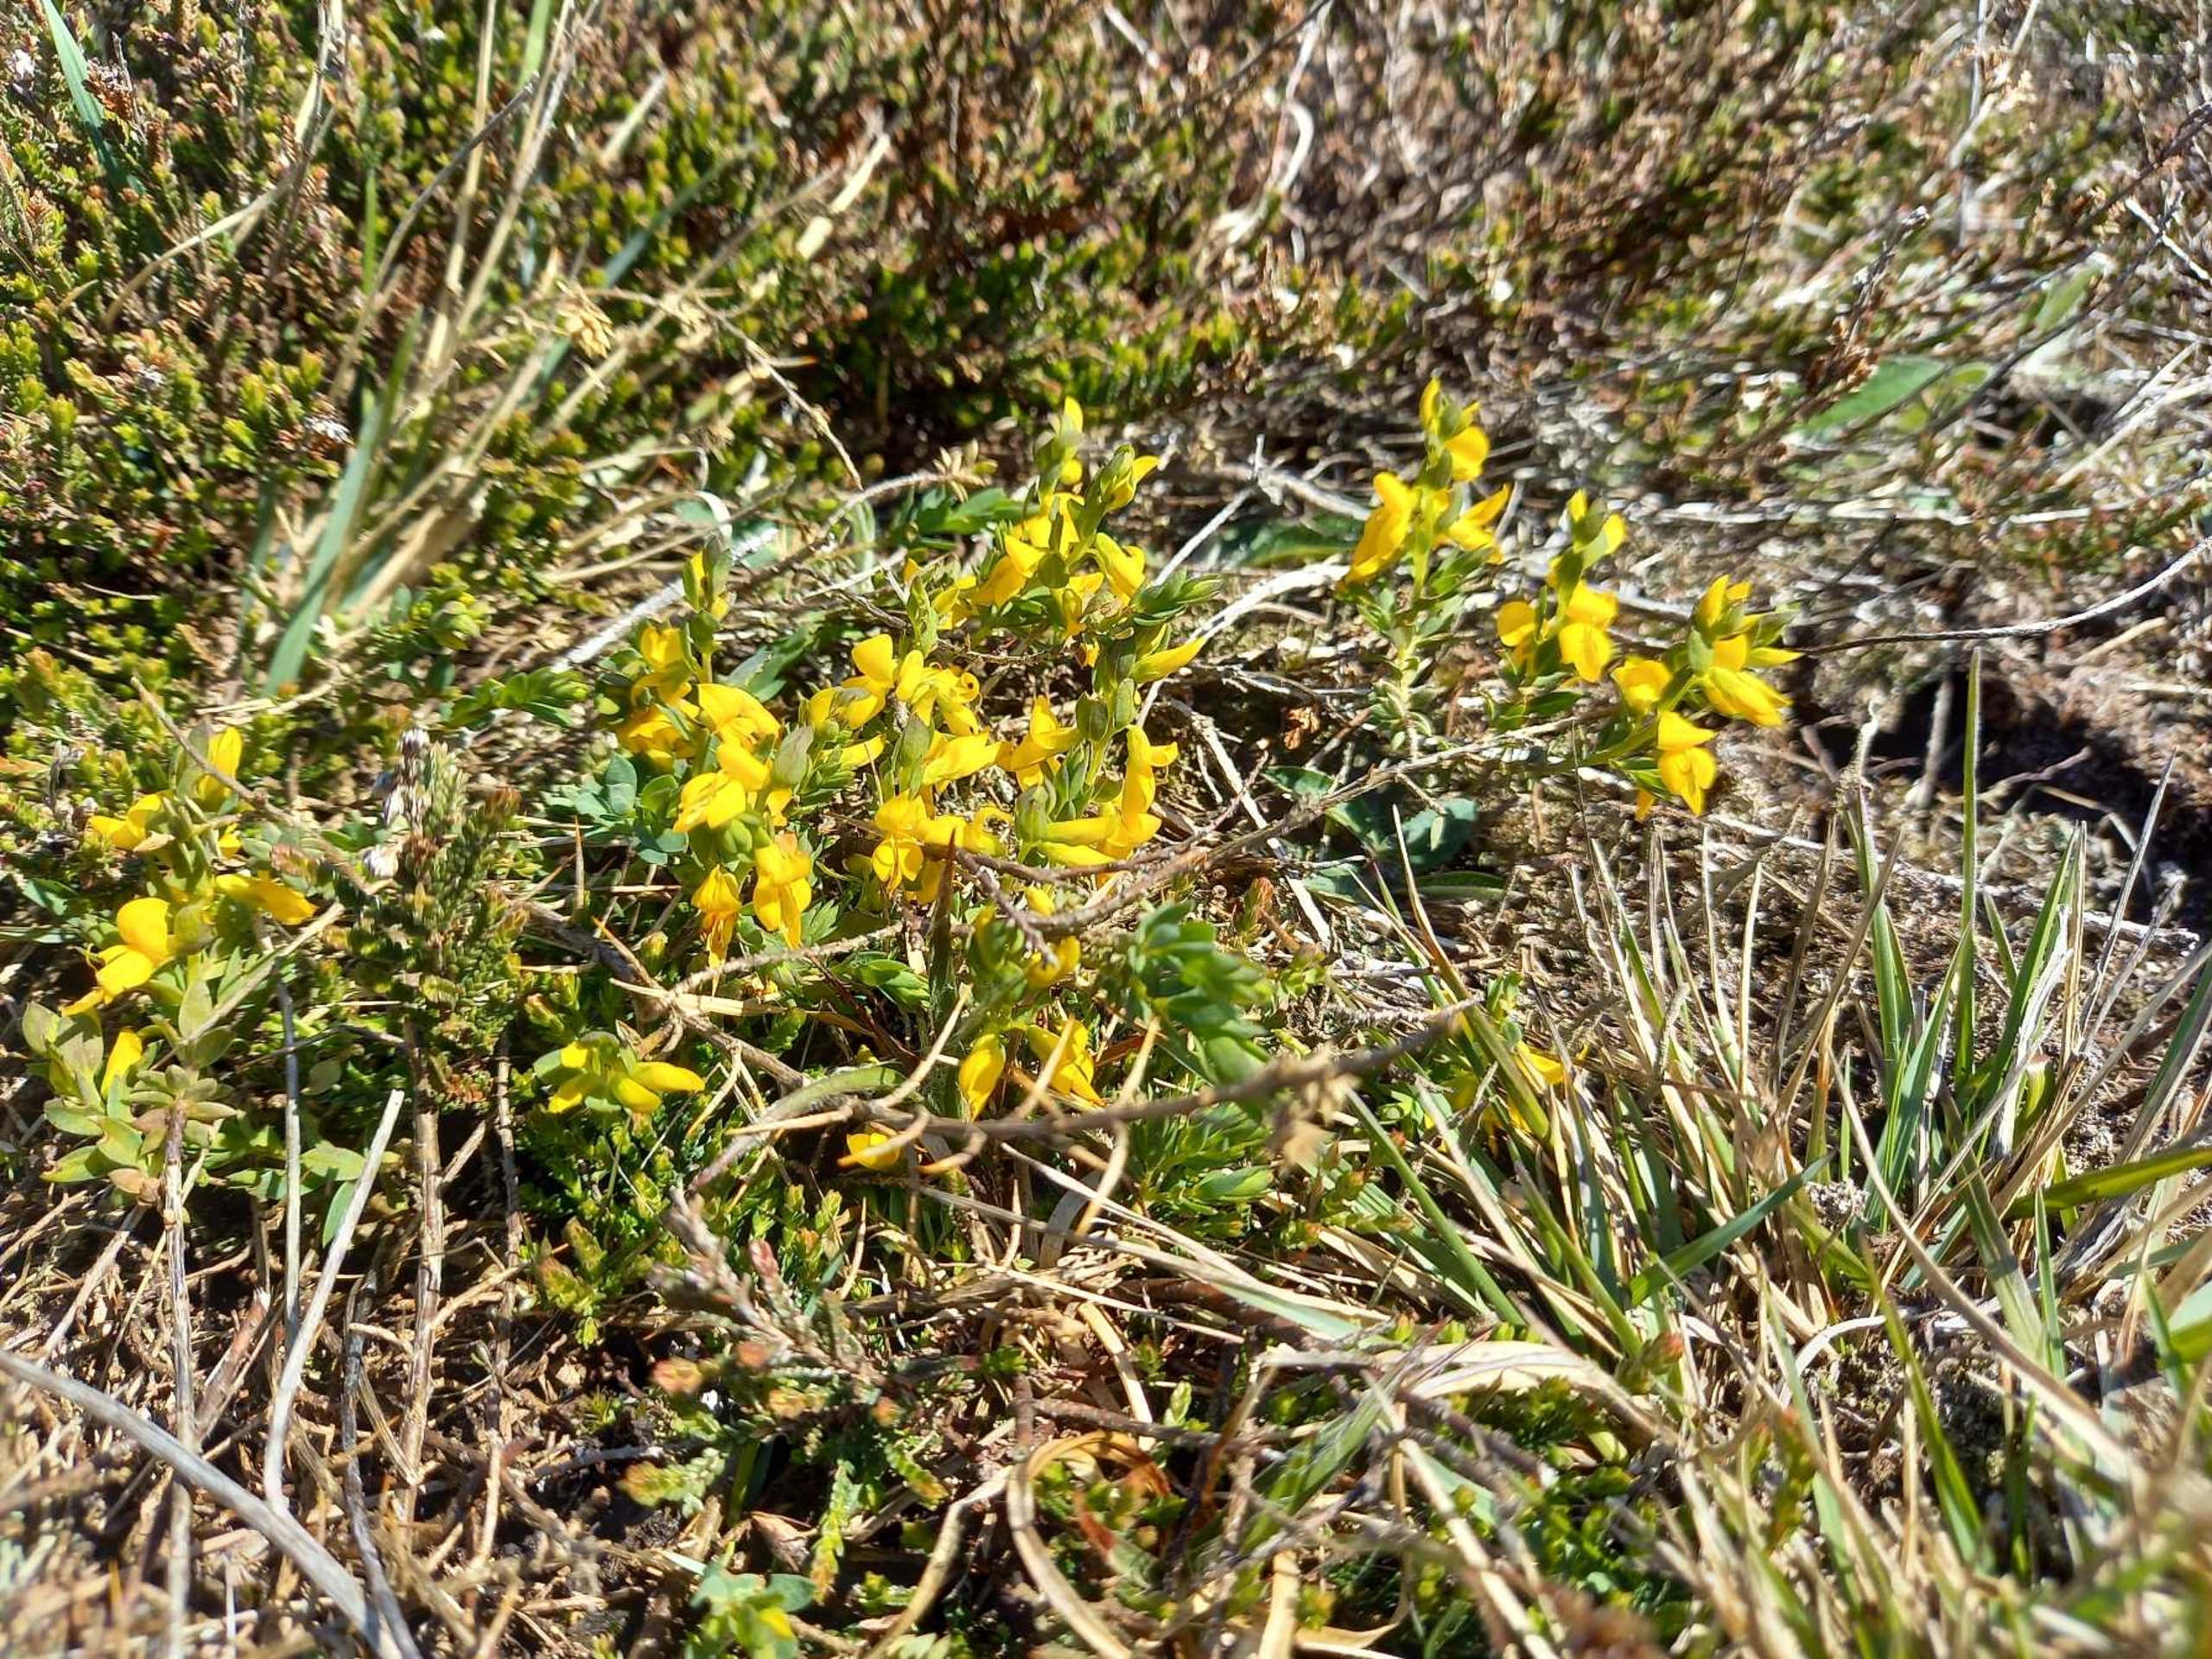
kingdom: Plantae
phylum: Tracheophyta
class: Magnoliopsida
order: Fabales
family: Fabaceae
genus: Genista
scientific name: Genista anglica
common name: Engelsk visse
